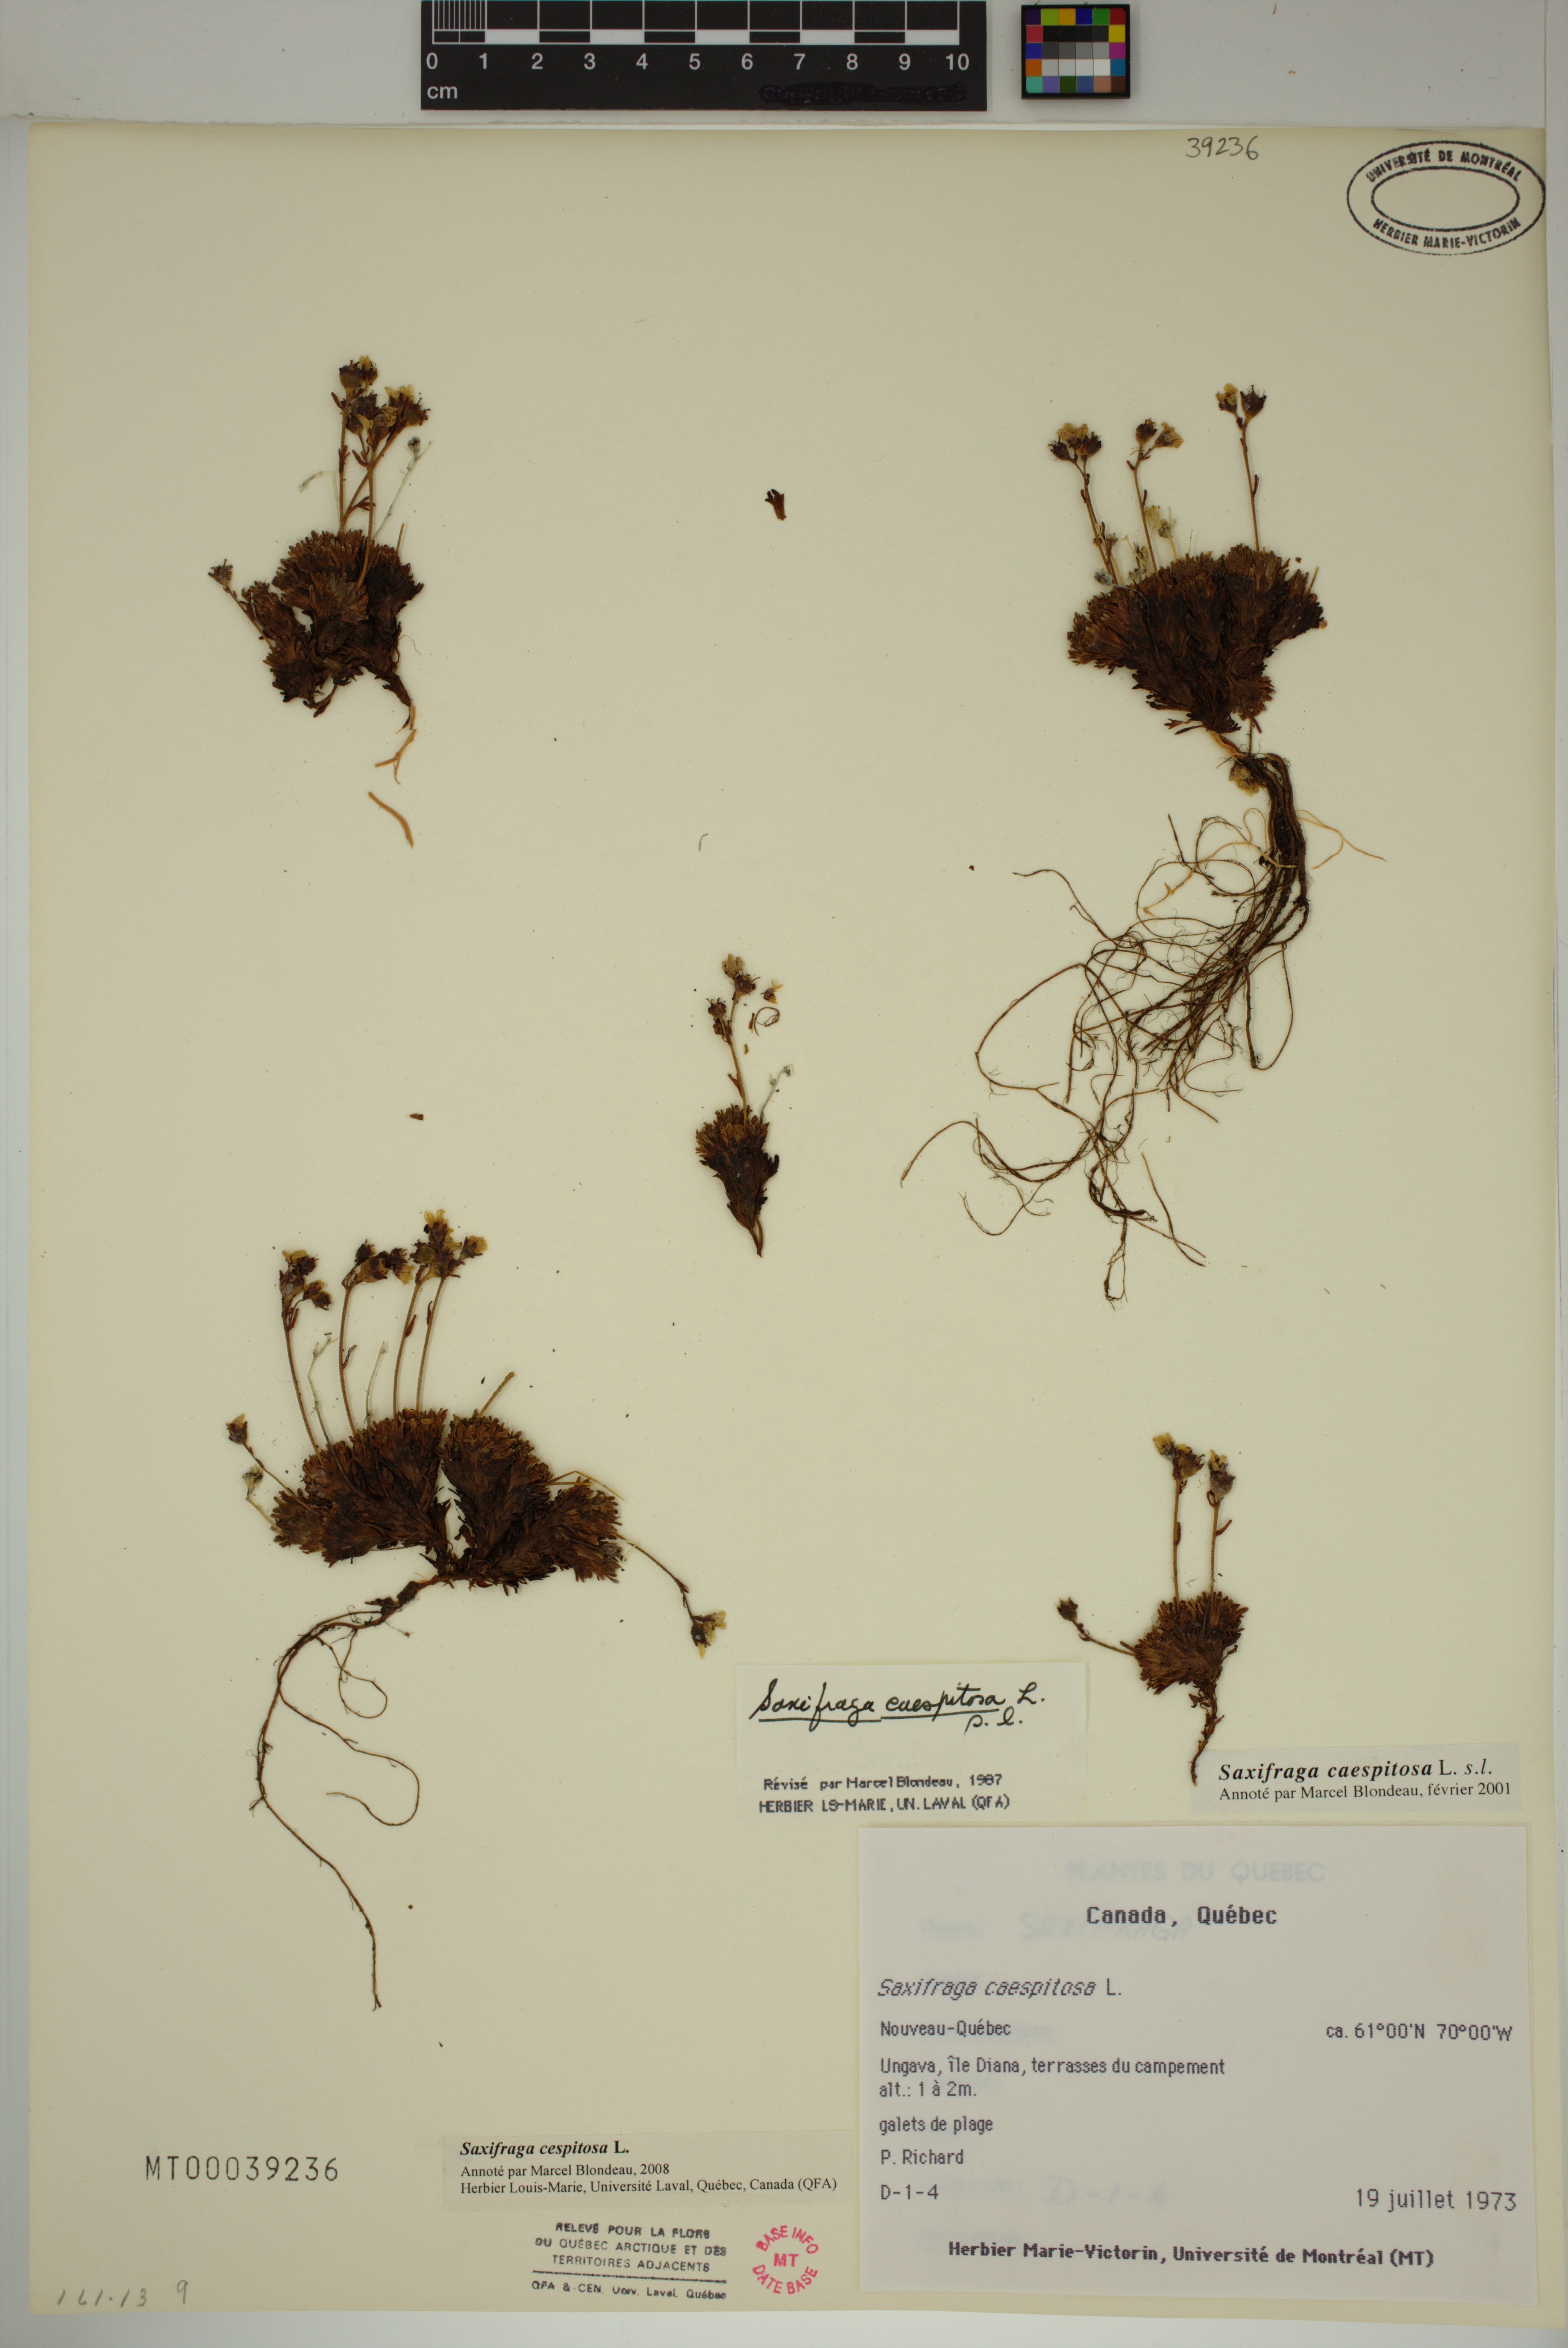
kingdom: Plantae
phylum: Tracheophyta
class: Magnoliopsida
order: Saxifragales
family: Saxifragaceae
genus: Saxifraga
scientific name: Saxifraga cespitosa
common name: Tufted saxifrage
